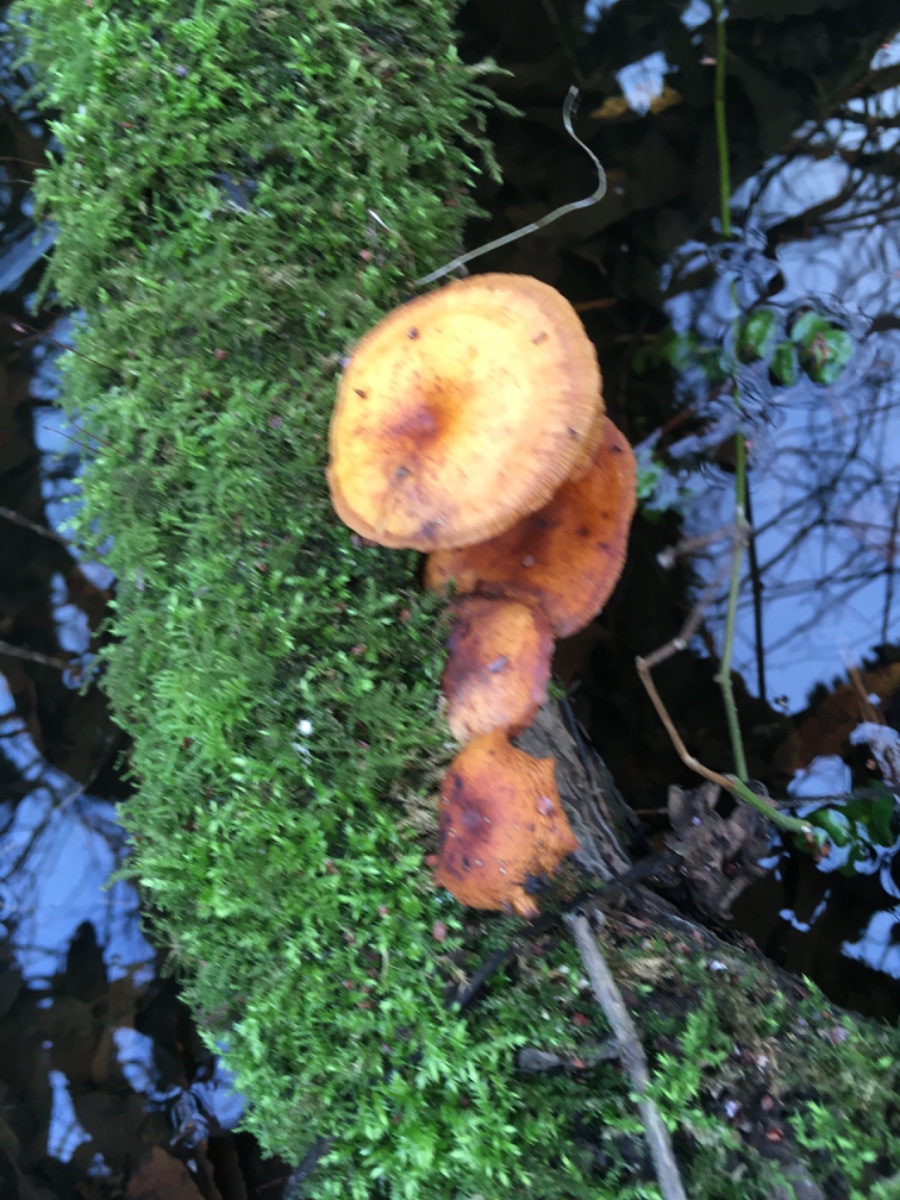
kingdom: Fungi
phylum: Basidiomycota
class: Agaricomycetes
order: Agaricales
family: Physalacriaceae
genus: Flammulina
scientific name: Flammulina elastica
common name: pile-fløjlsfod
